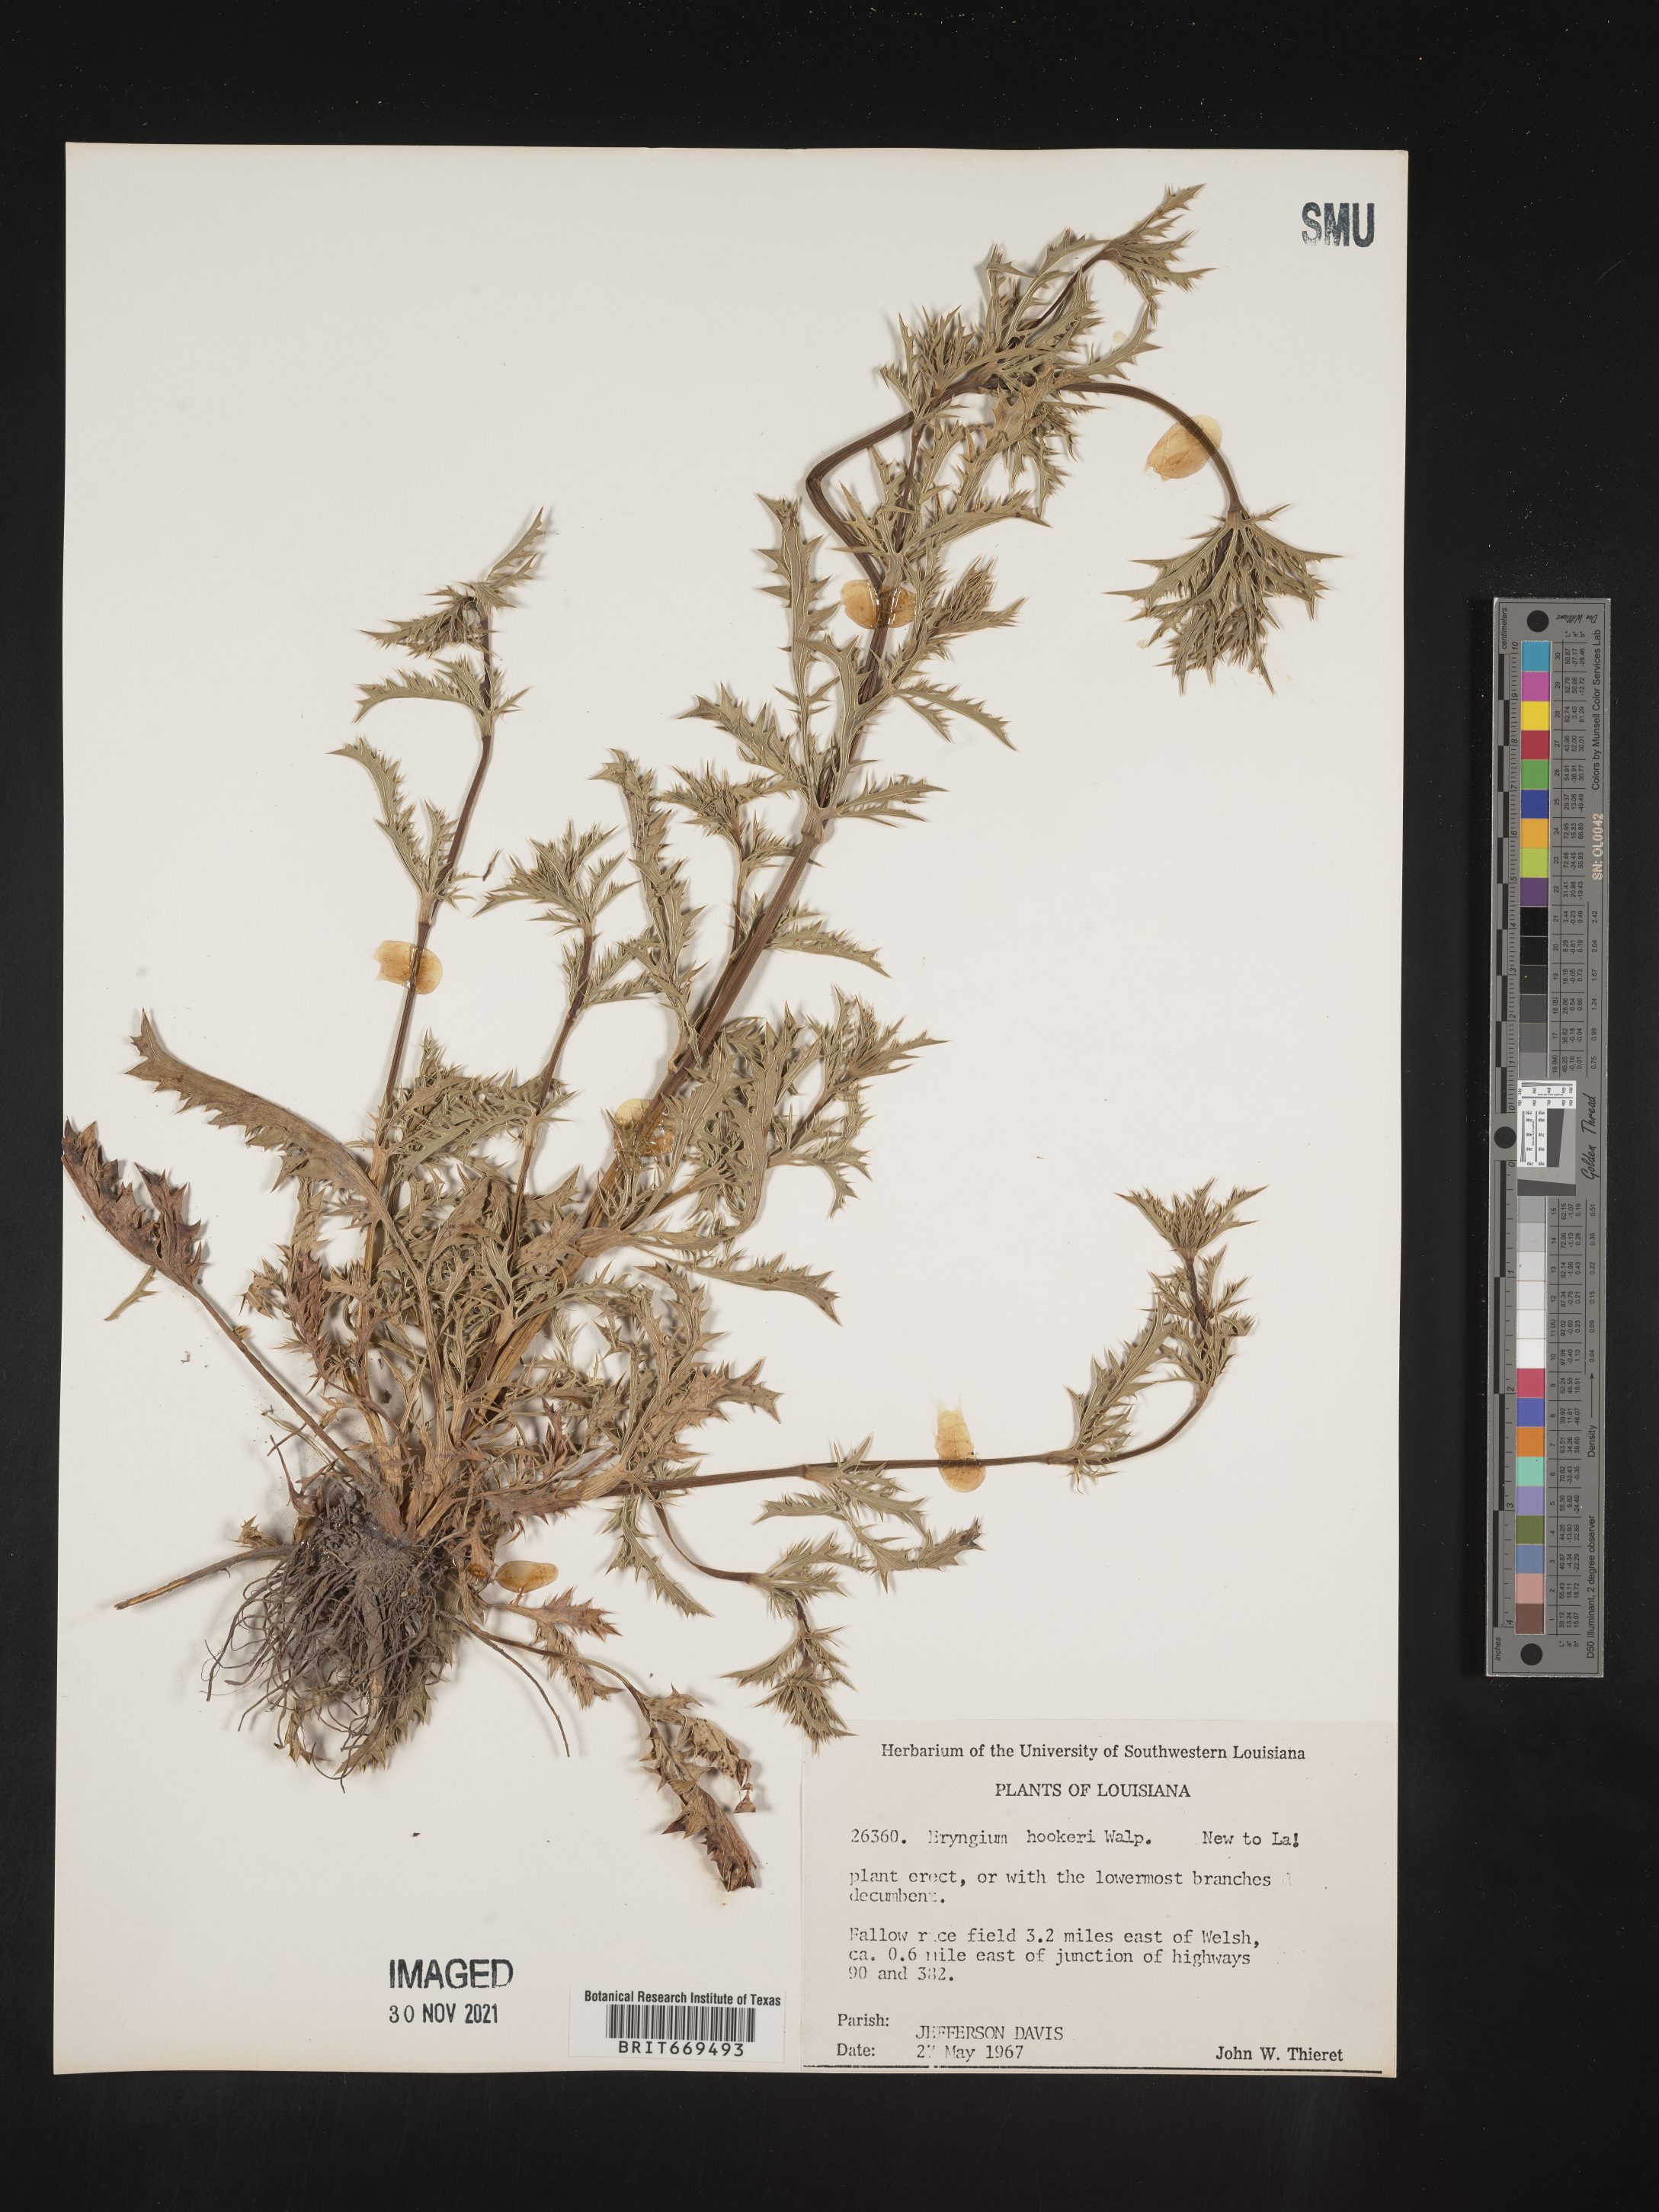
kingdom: Plantae
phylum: Tracheophyta
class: Magnoliopsida
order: Apiales
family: Apiaceae
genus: Eryngium
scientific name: Eryngium
